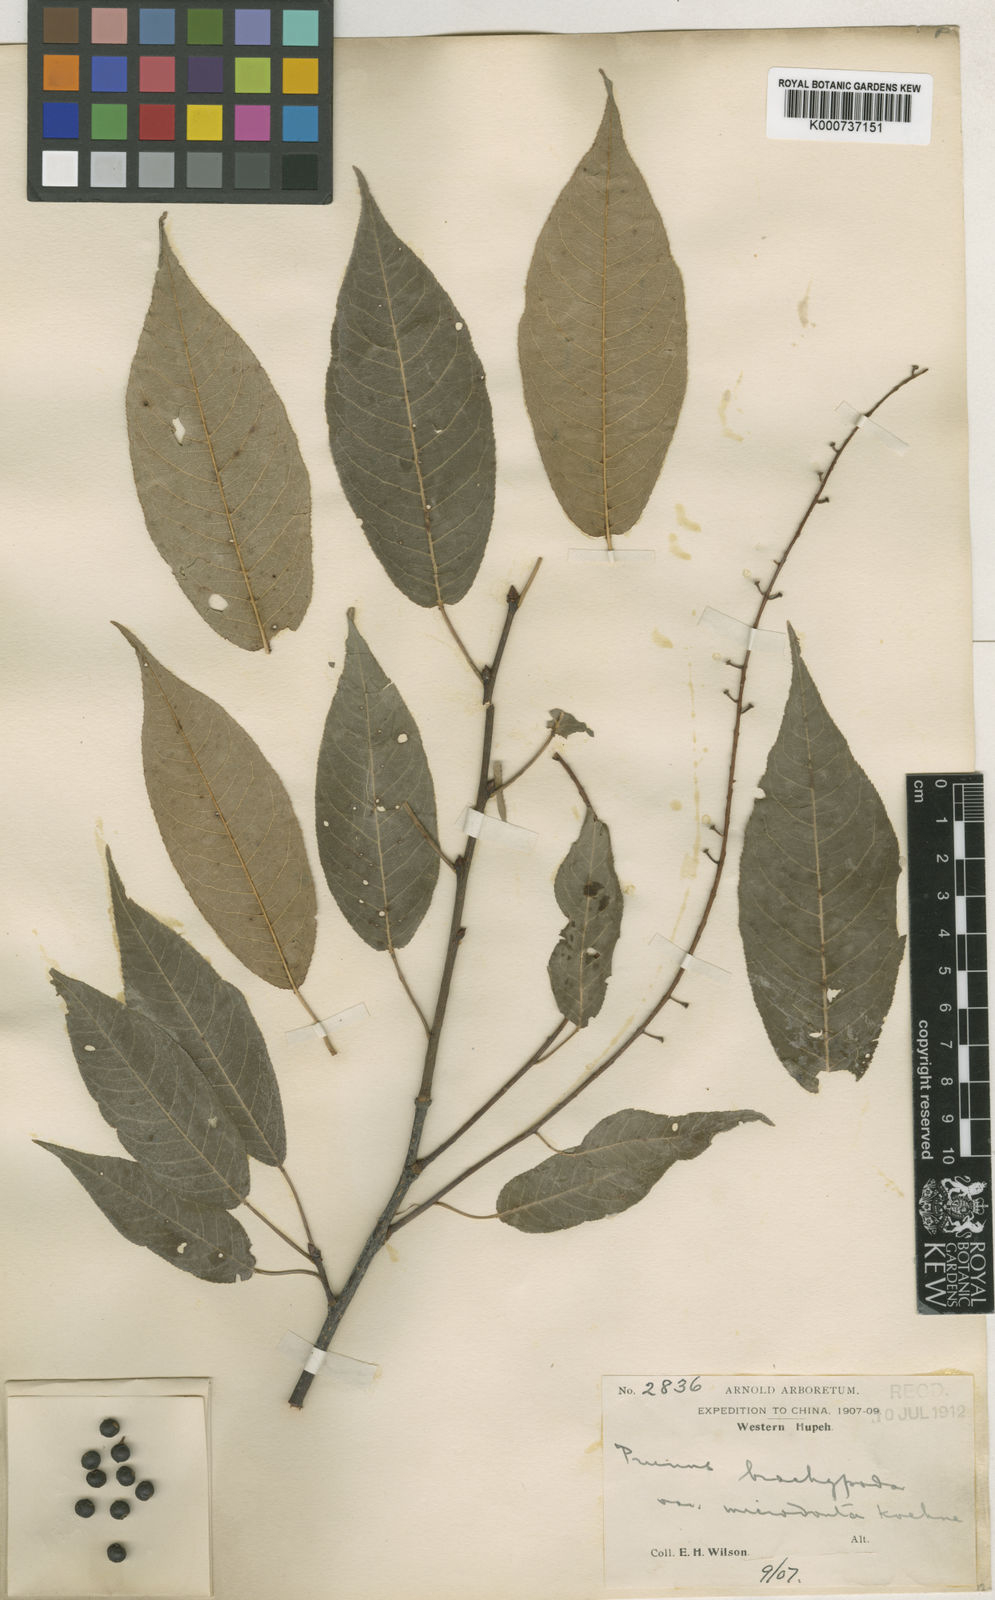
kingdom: Plantae
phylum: Tracheophyta
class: Magnoliopsida
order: Rosales
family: Rosaceae
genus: Prunus
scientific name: Prunus brachypoda
